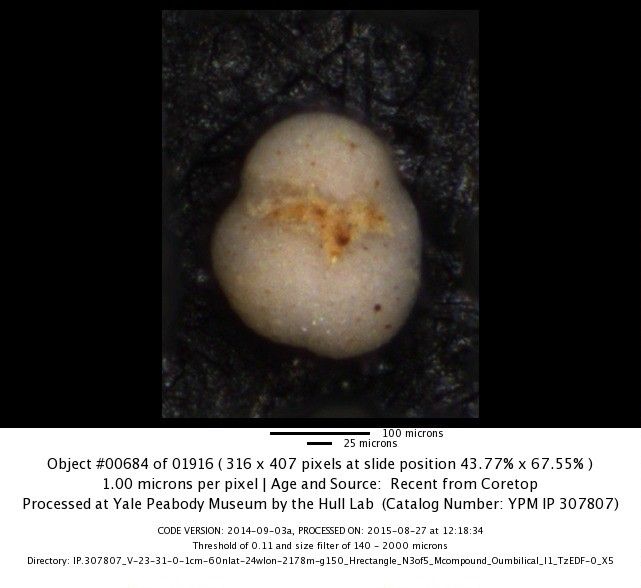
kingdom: Chromista
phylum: Foraminifera
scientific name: Foraminifera
